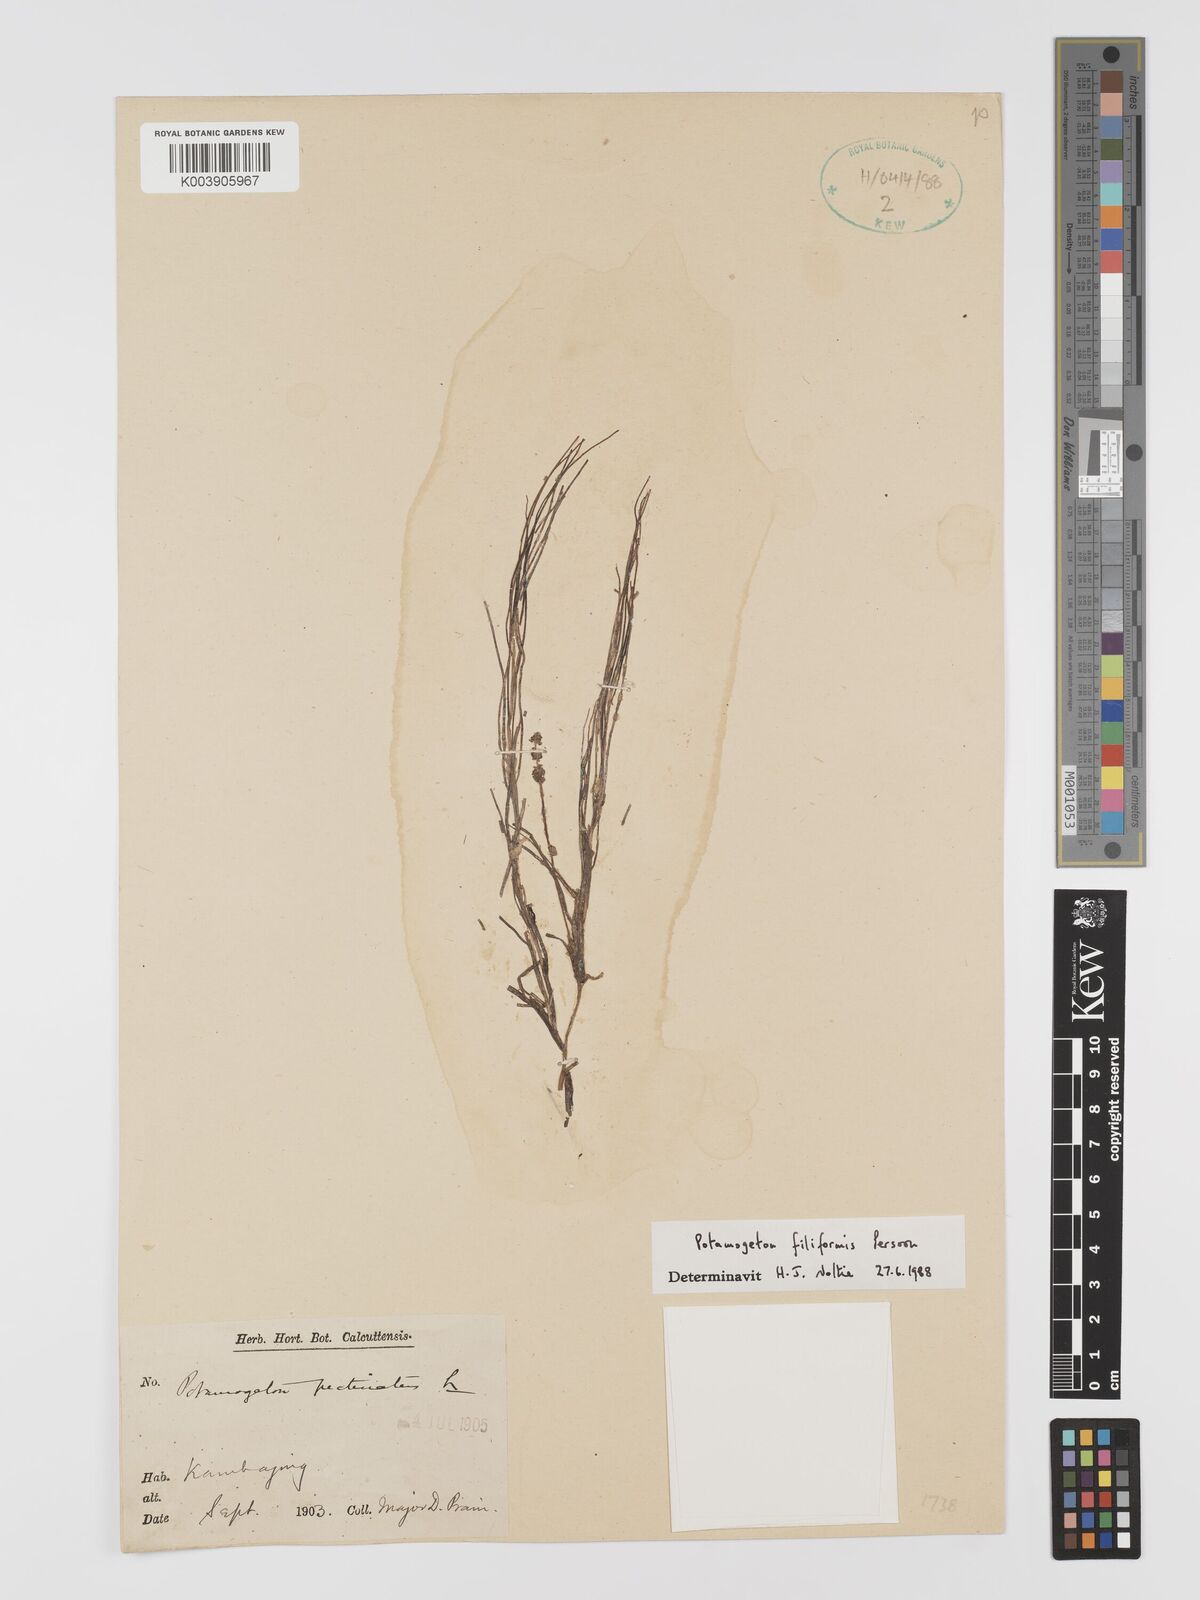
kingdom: Plantae
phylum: Tracheophyta
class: Liliopsida
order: Alismatales
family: Potamogetonaceae
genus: Potamogeton
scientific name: Potamogeton filiformis
